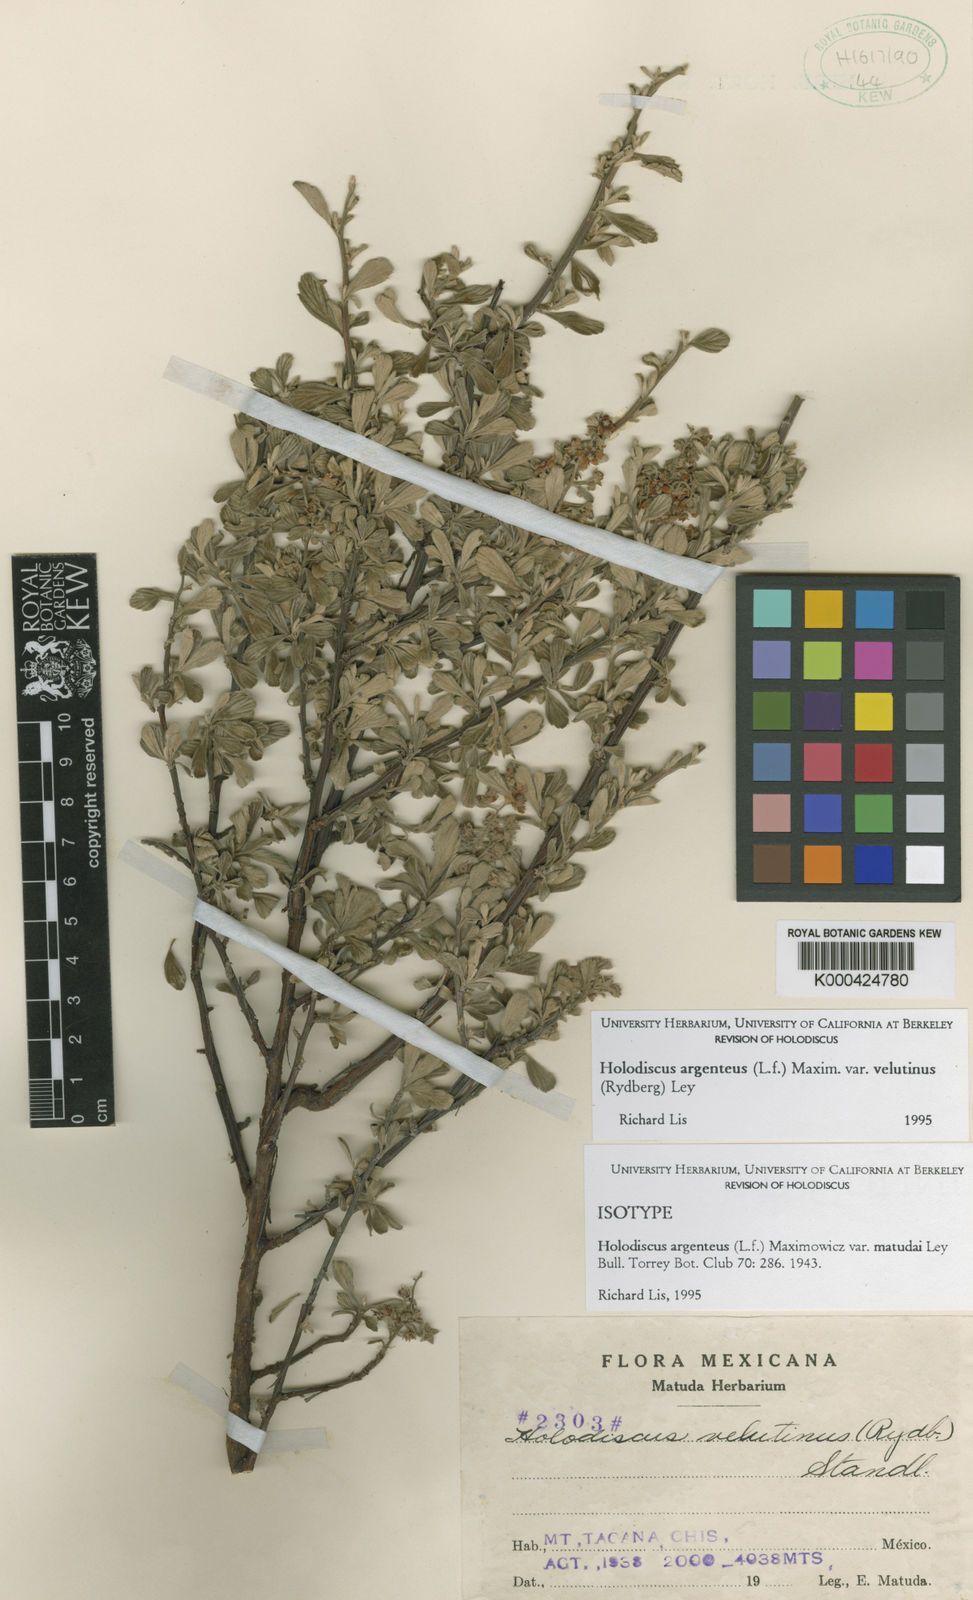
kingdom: Plantae
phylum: Tracheophyta
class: Magnoliopsida
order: Rosales
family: Rosaceae
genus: Holodiscus
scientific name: Holodiscus argenteus
